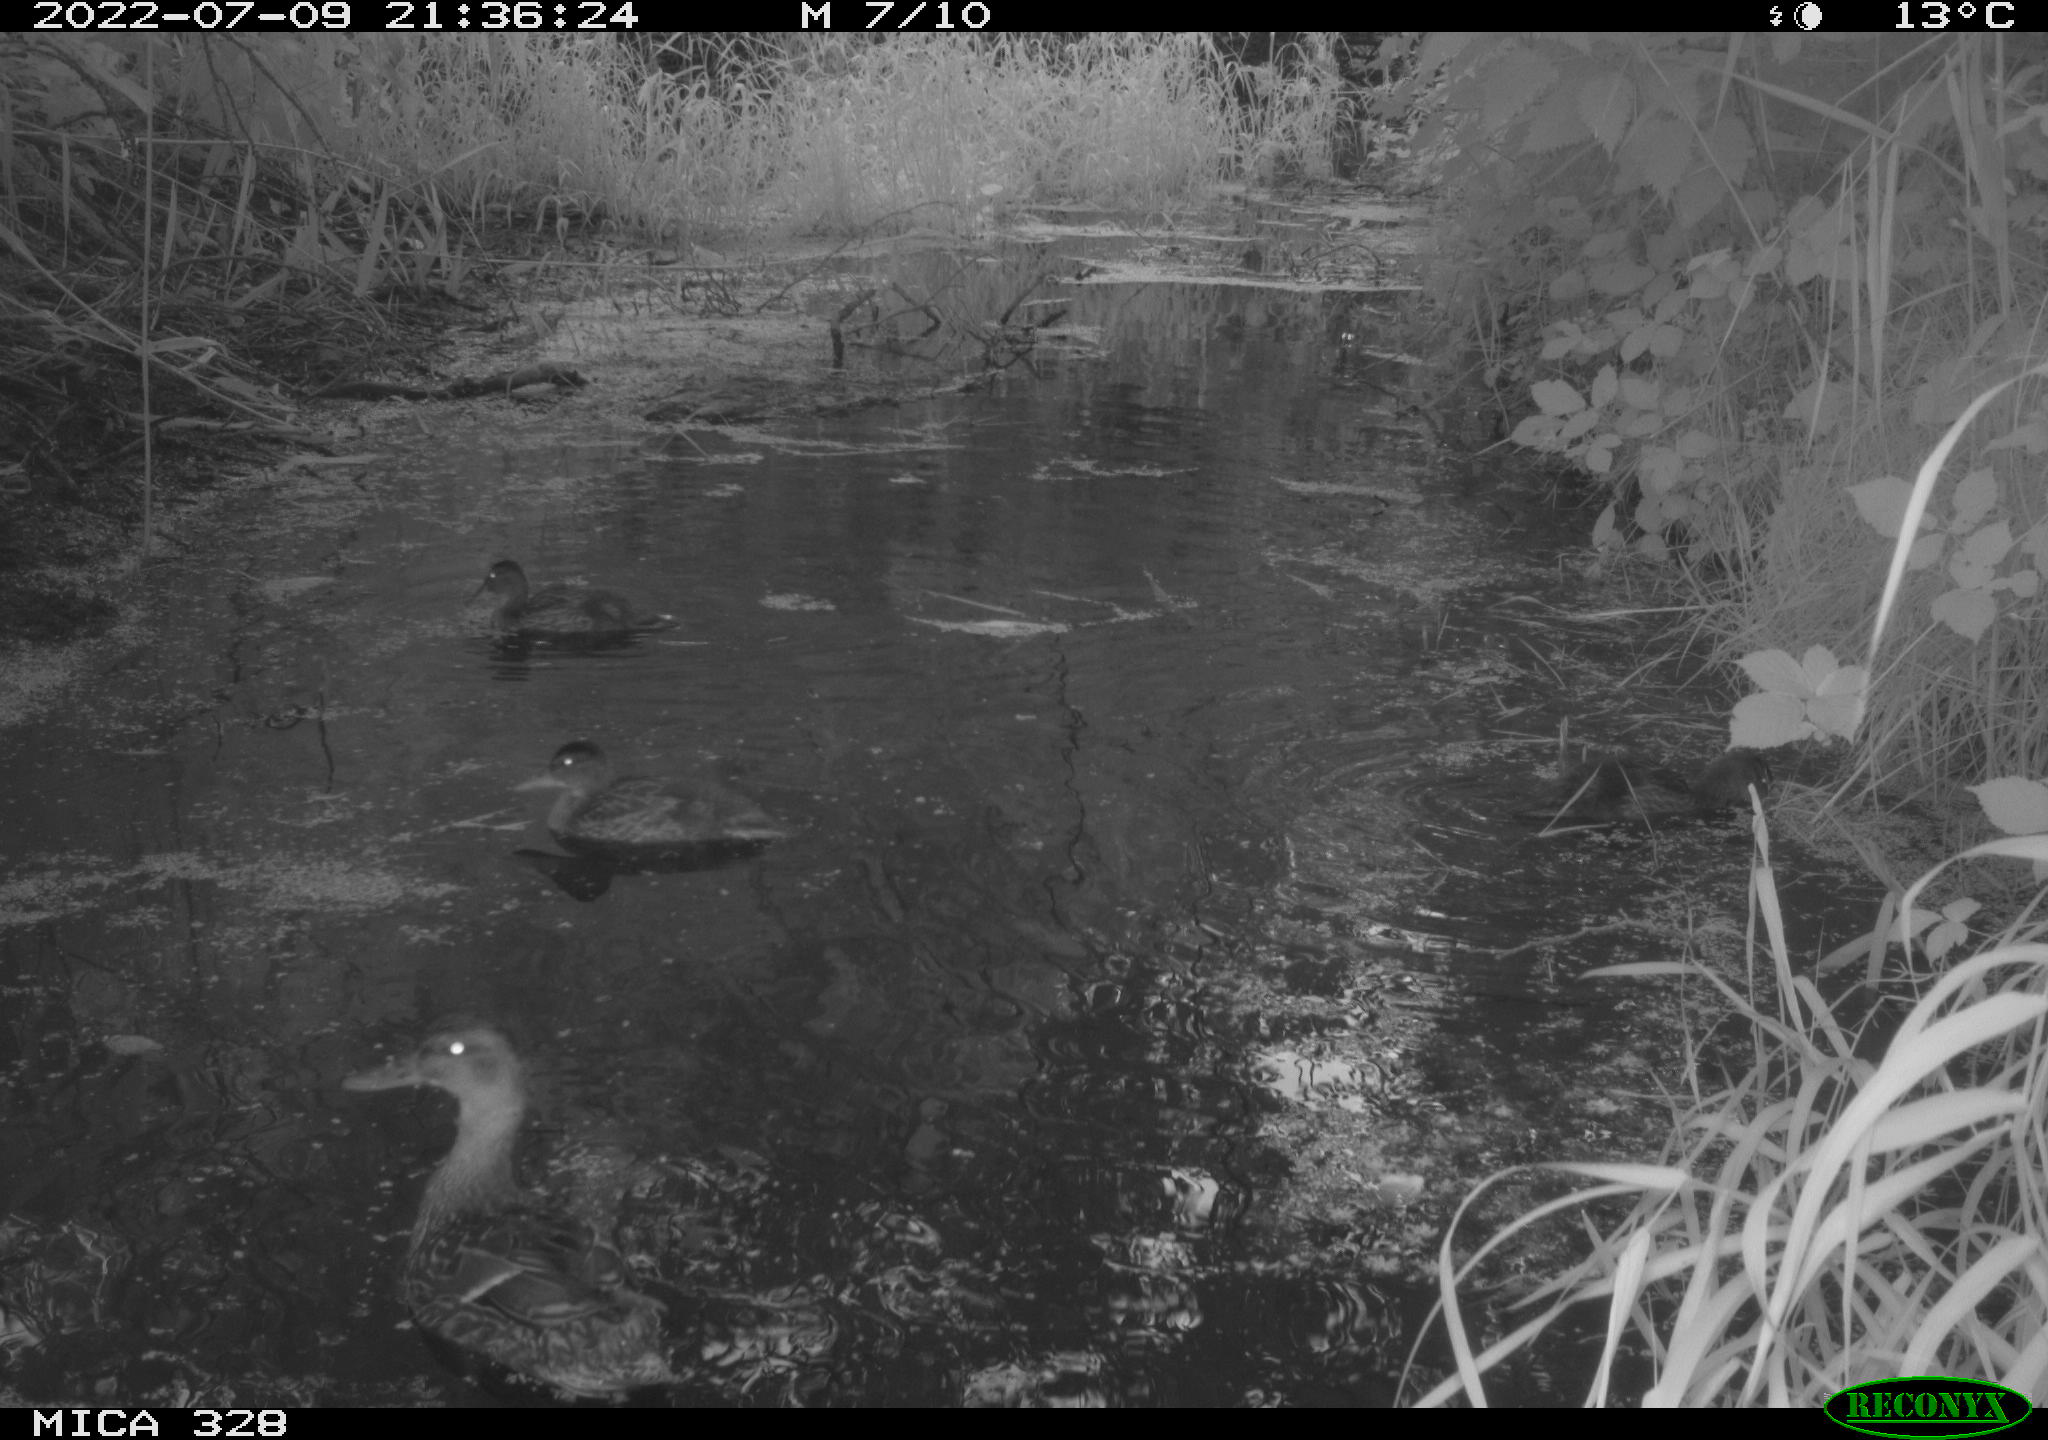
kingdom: Animalia
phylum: Chordata
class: Aves
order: Anseriformes
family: Anatidae
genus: Anas
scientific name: Anas
